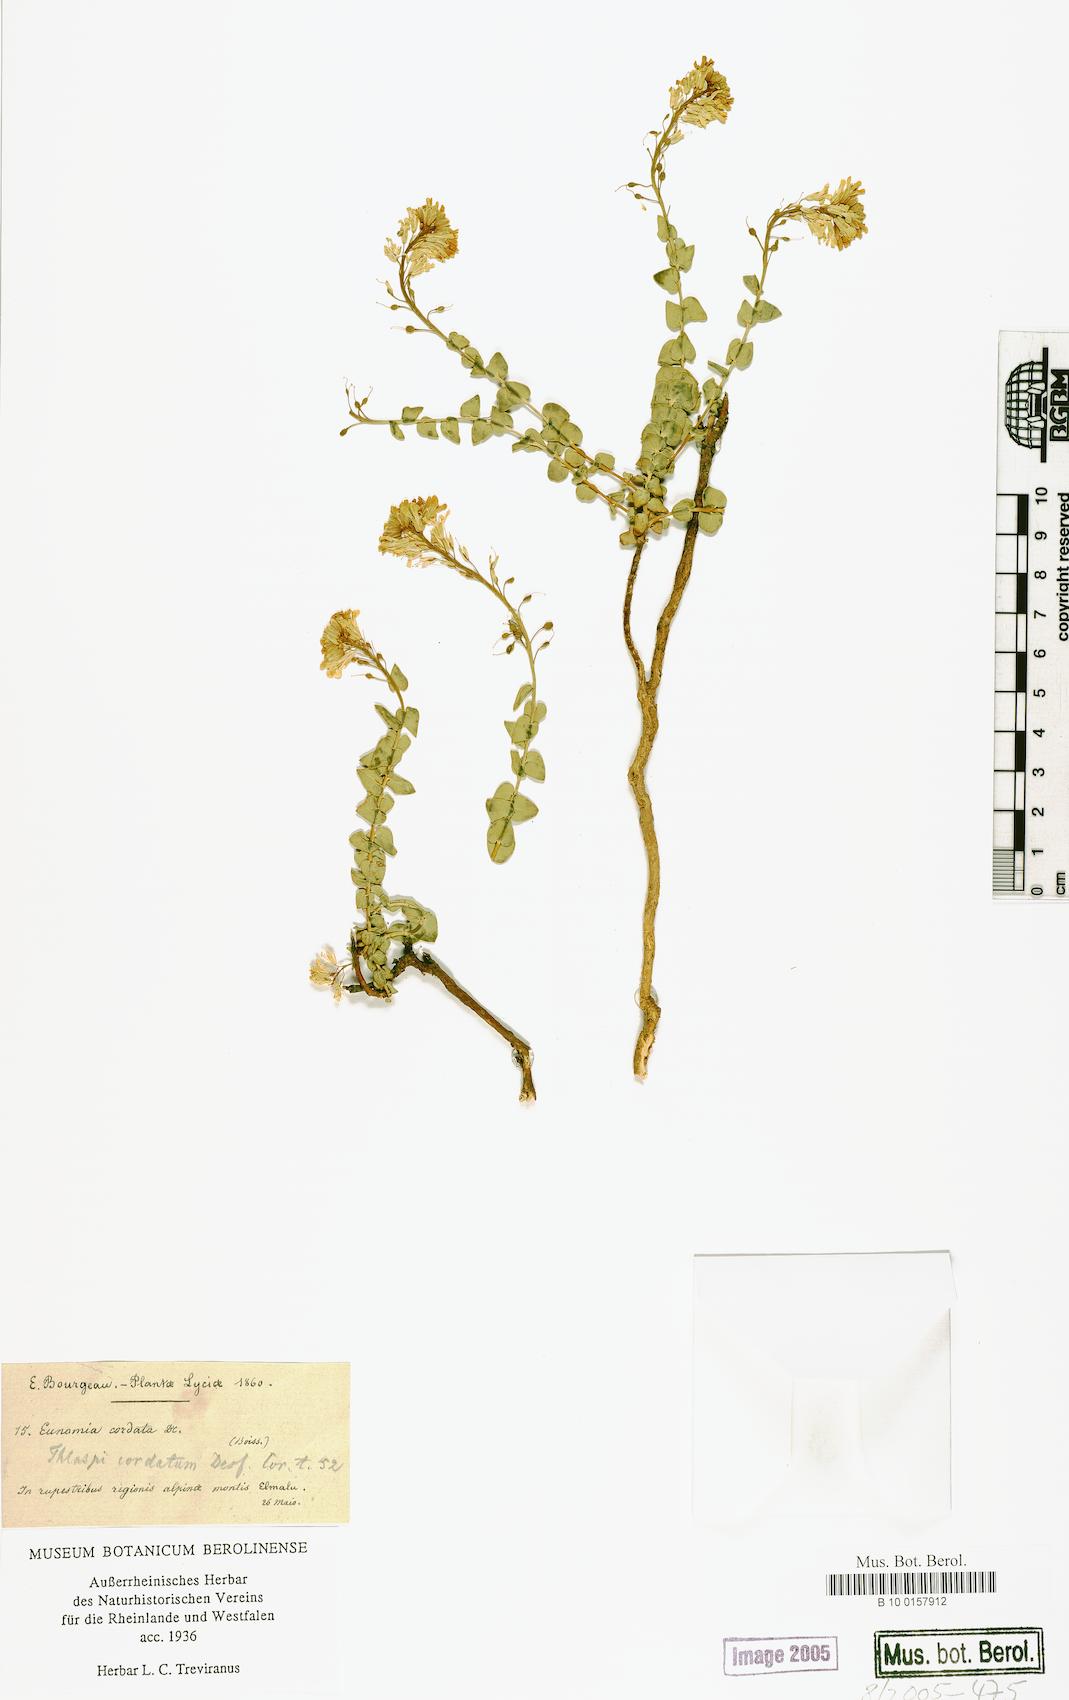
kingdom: Plantae
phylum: Tracheophyta
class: Magnoliopsida
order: Brassicales
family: Brassicaceae
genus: Aethionema
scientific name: Aethionema cordatum
